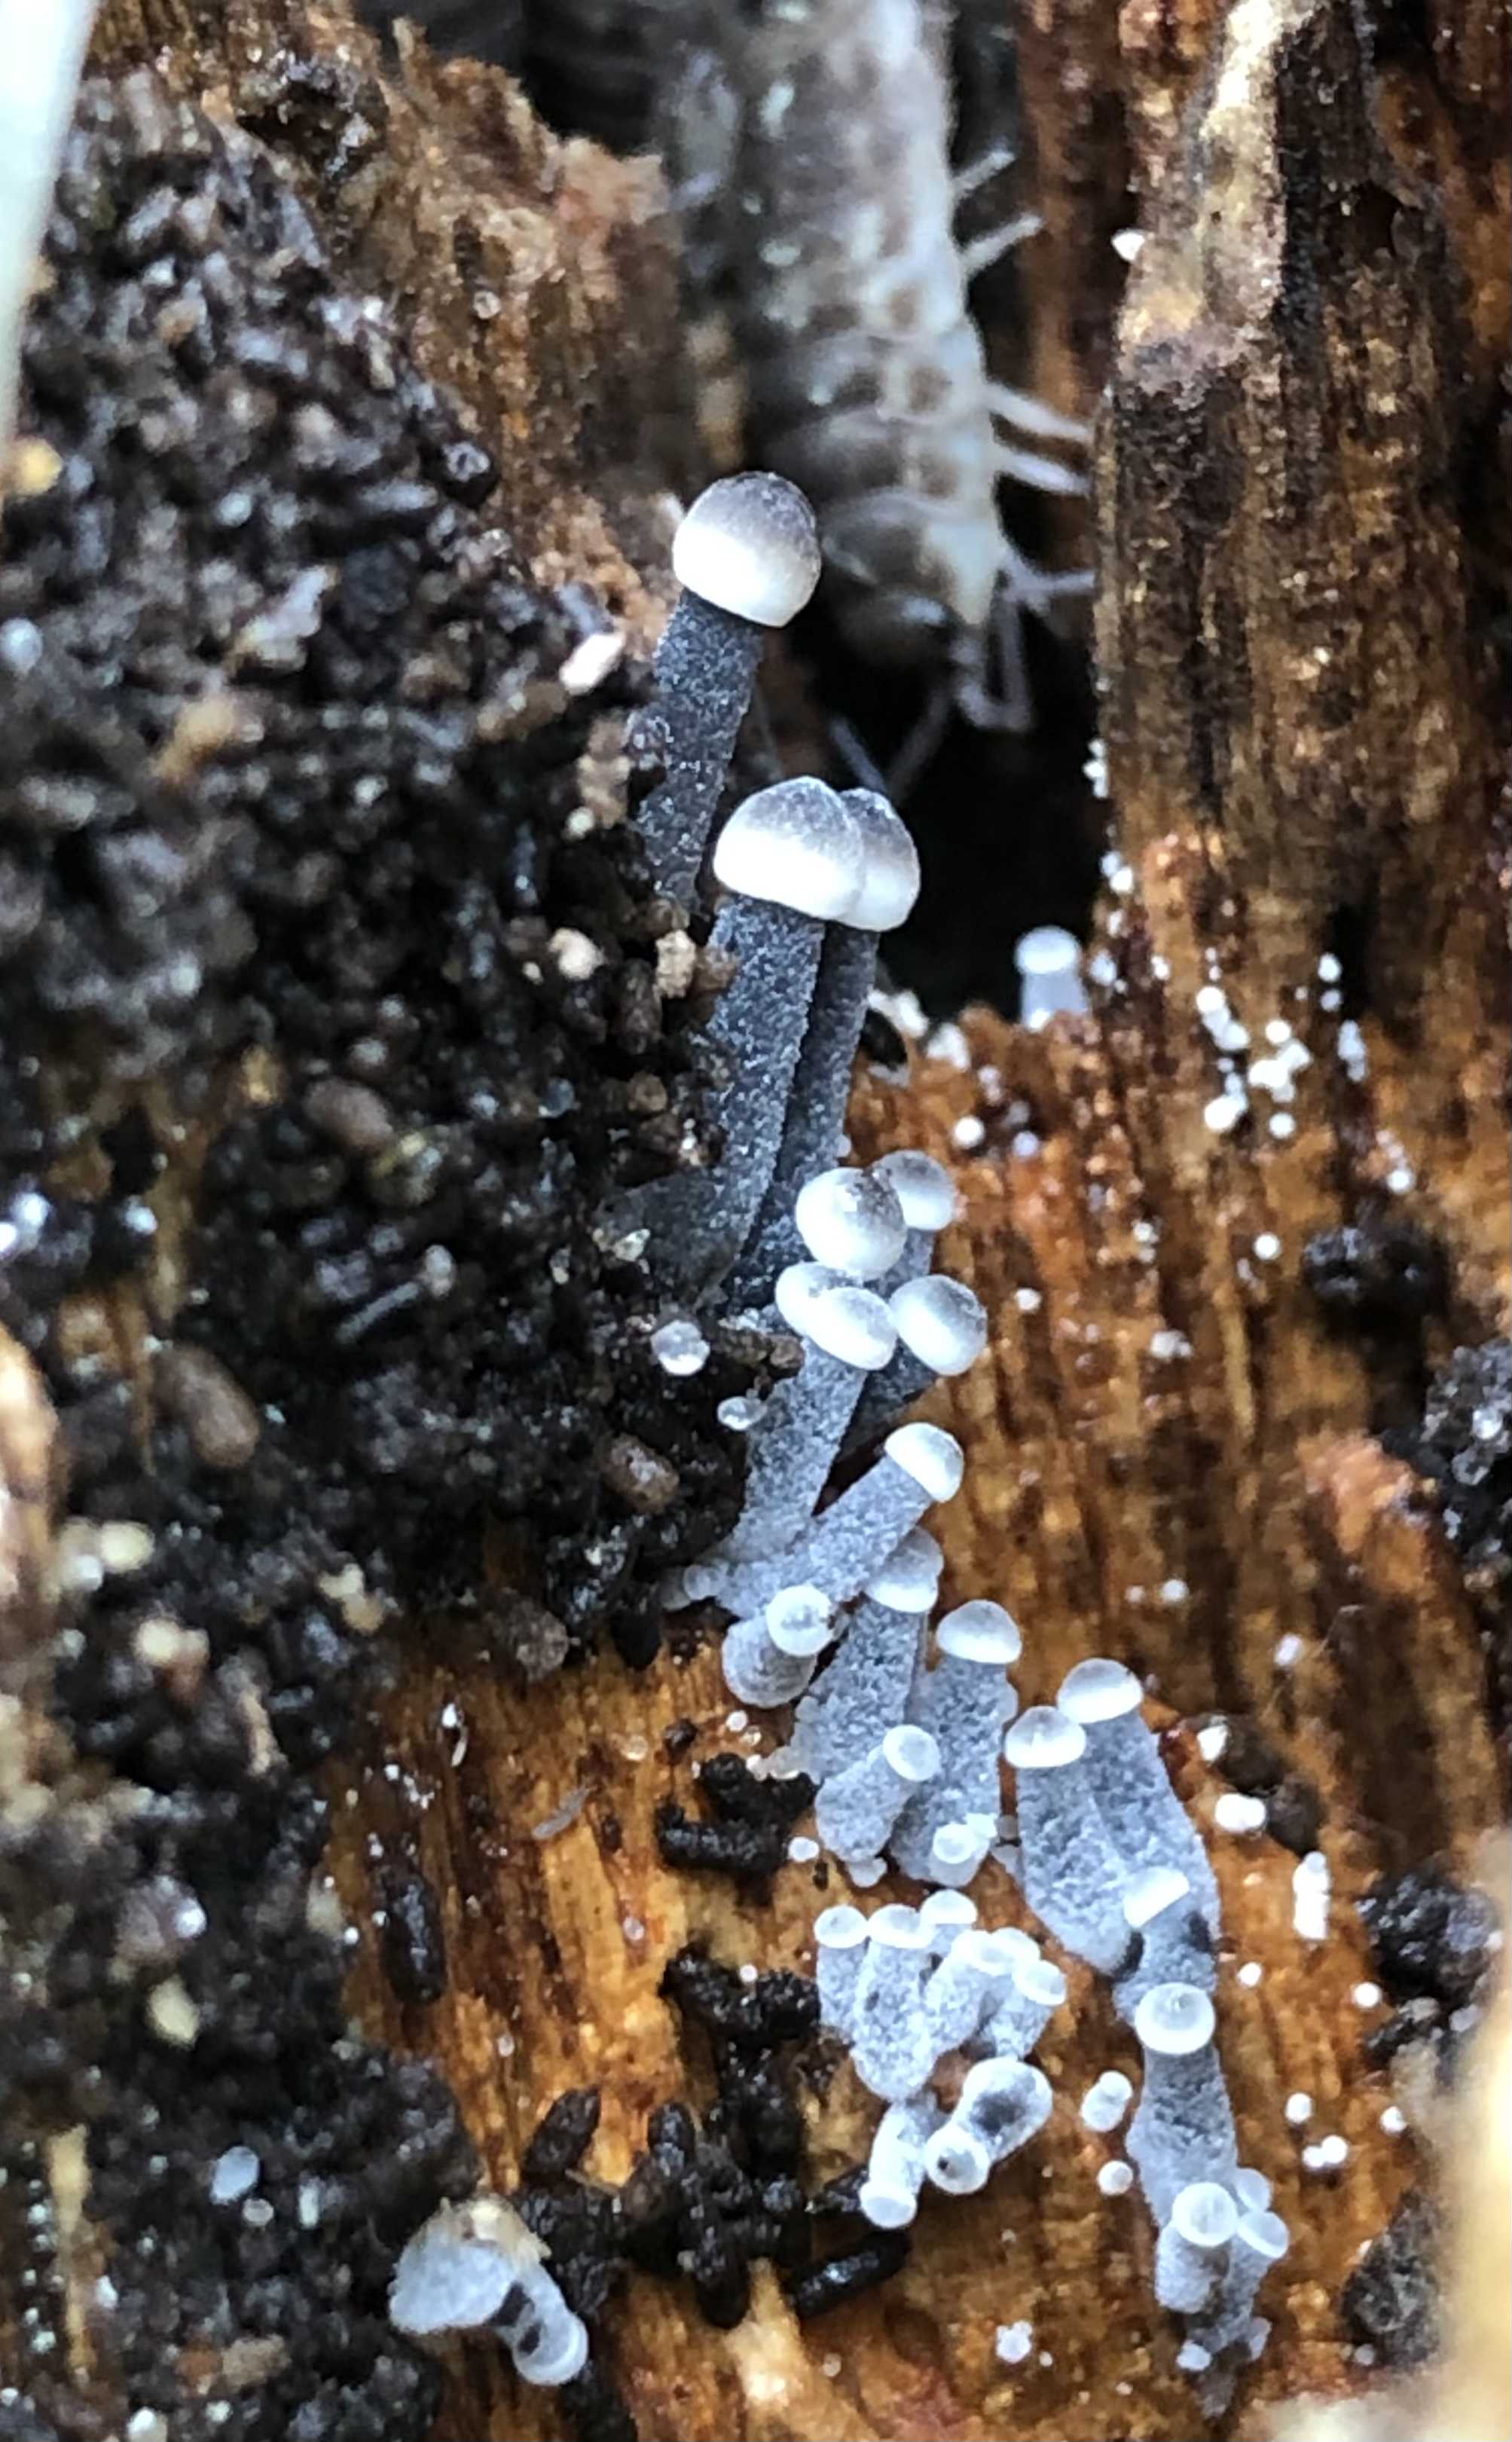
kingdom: Fungi
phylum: Basidiomycota
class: Agaricomycetes
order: Agaricales
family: Mycenaceae
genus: Mycena
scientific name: Mycena
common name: huesvamp
